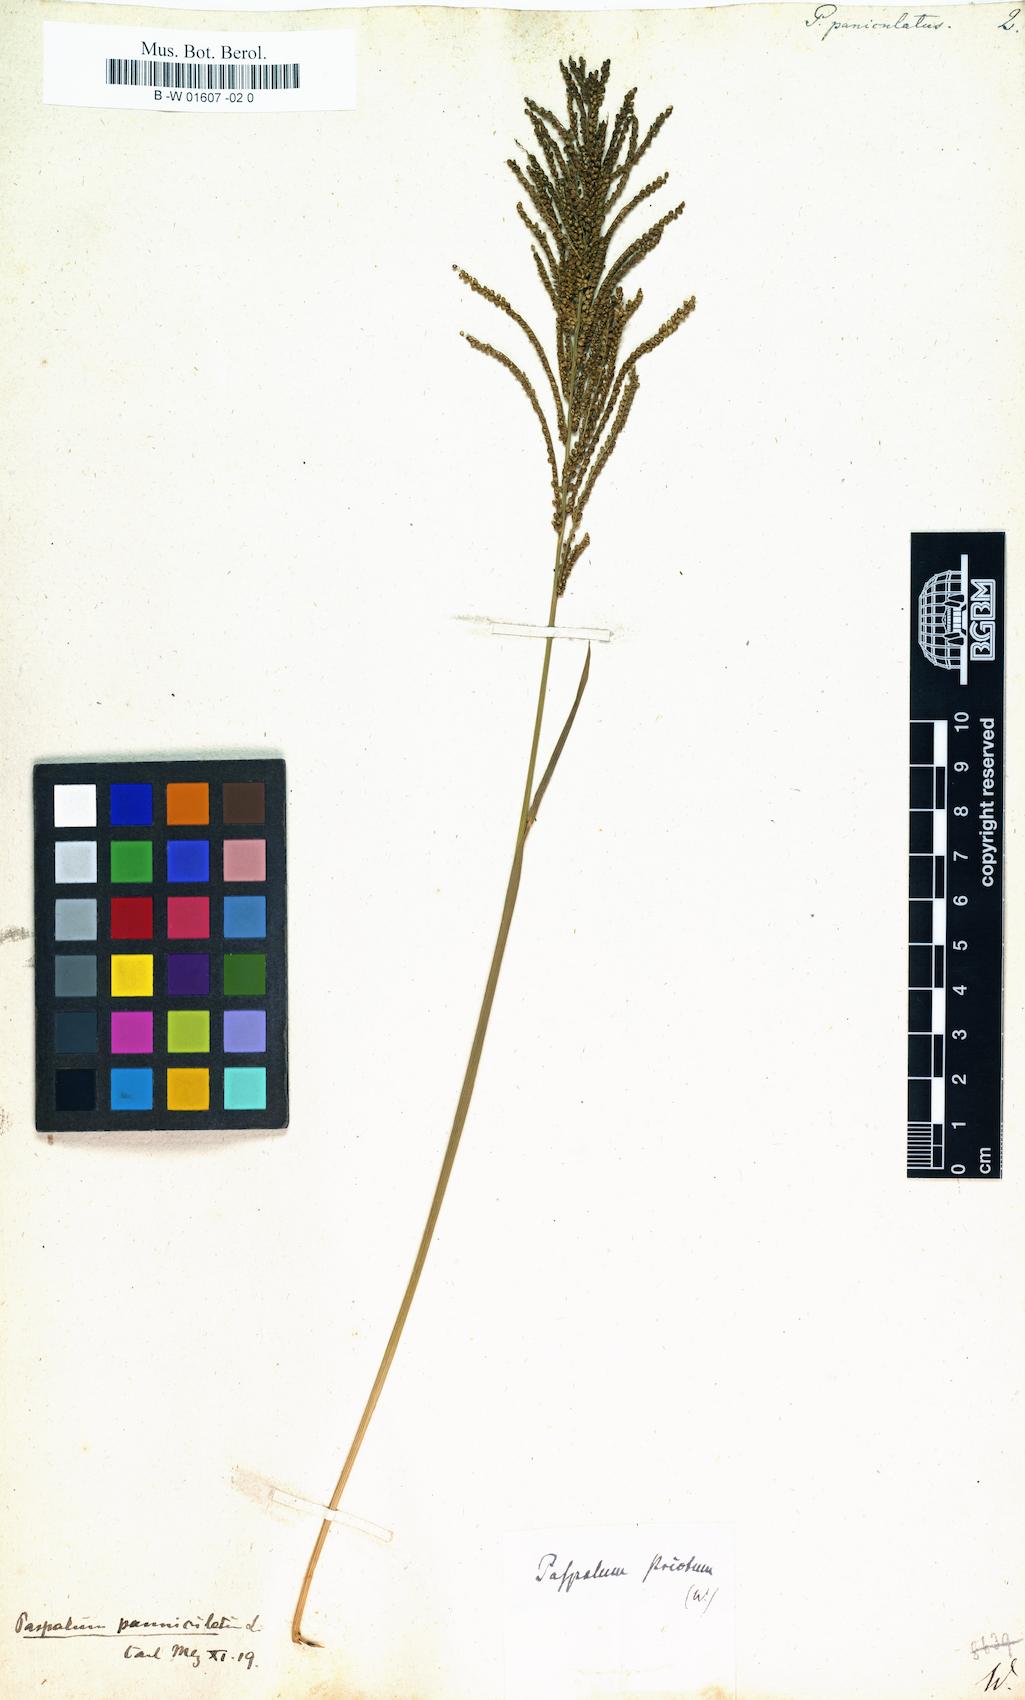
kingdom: Plantae
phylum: Tracheophyta
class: Liliopsida
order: Poales
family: Poaceae
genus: Paspalus
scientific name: Paspalus
